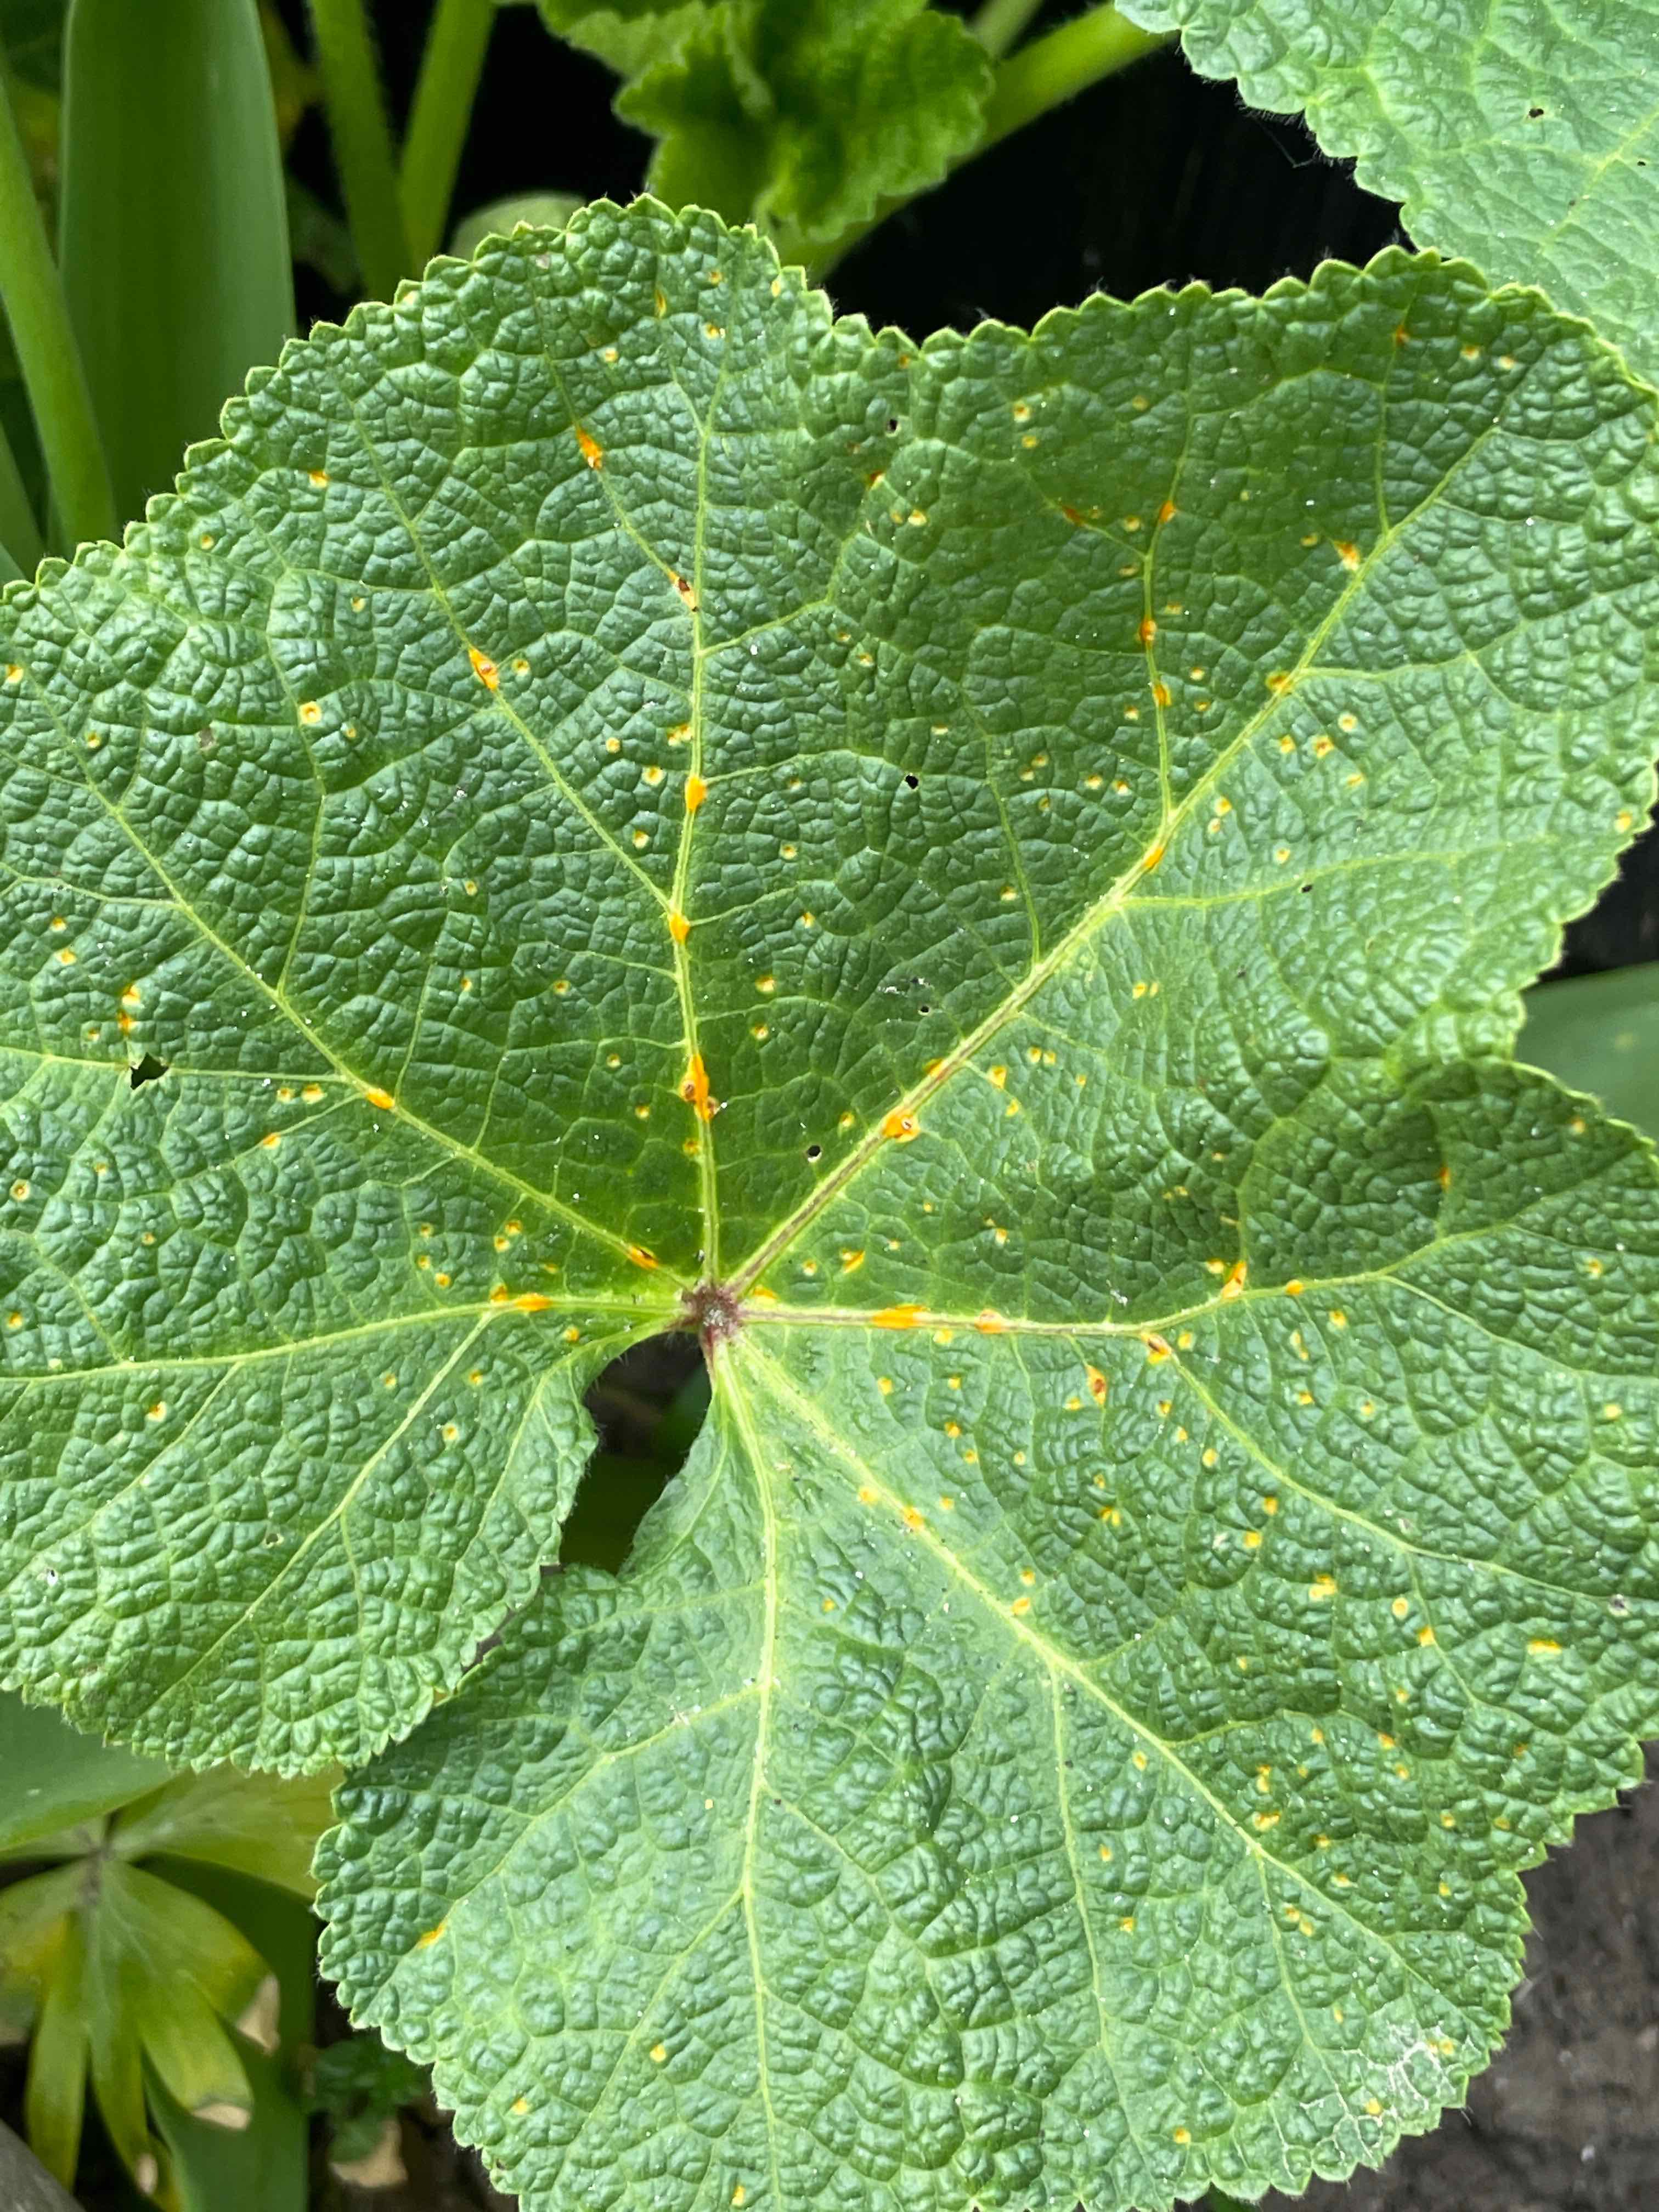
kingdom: Fungi
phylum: Basidiomycota
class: Pucciniomycetes
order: Pucciniales
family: Pucciniaceae
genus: Puccinia
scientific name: Puccinia malvacearum
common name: stokrose-tvecellerust
